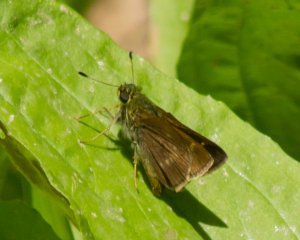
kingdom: Animalia
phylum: Arthropoda
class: Insecta
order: Lepidoptera
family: Hesperiidae
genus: Vernia
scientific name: Vernia verna
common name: Little Glassywing
